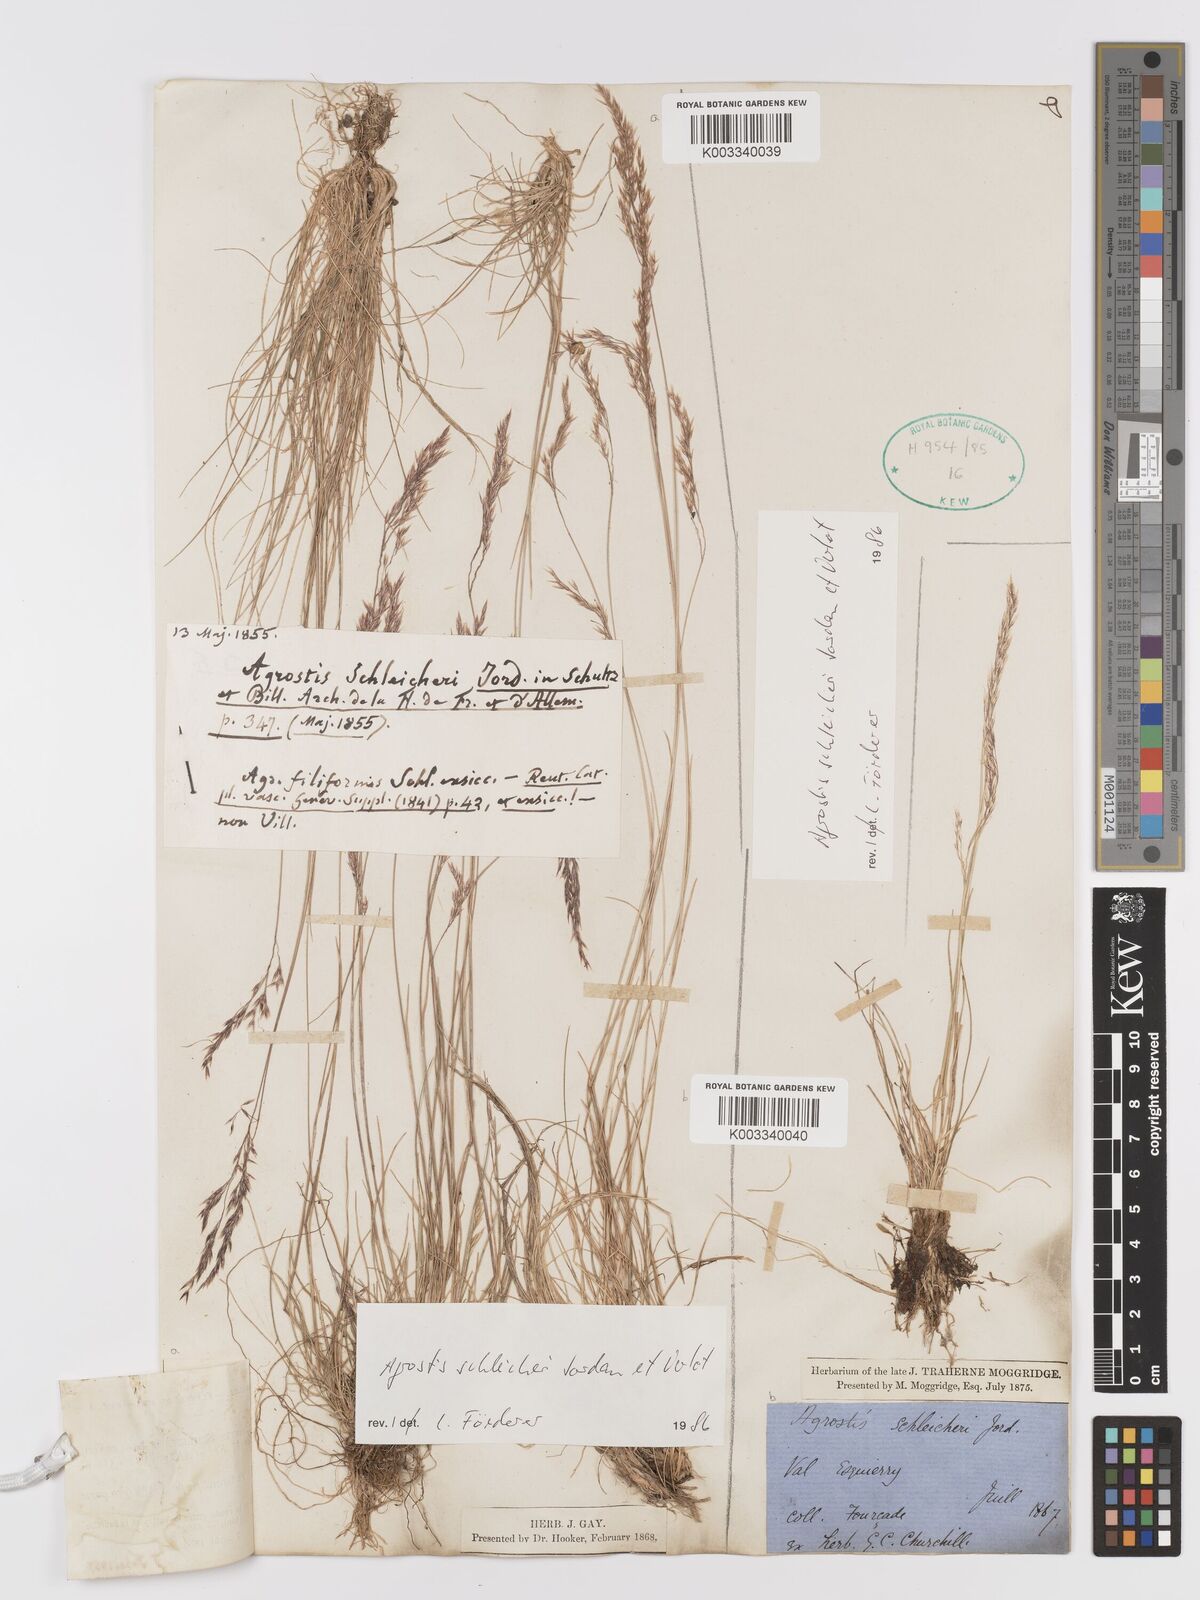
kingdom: Plantae
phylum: Tracheophyta
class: Liliopsida
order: Poales
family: Poaceae
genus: Alpagrostis
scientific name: Alpagrostis schleicheri
